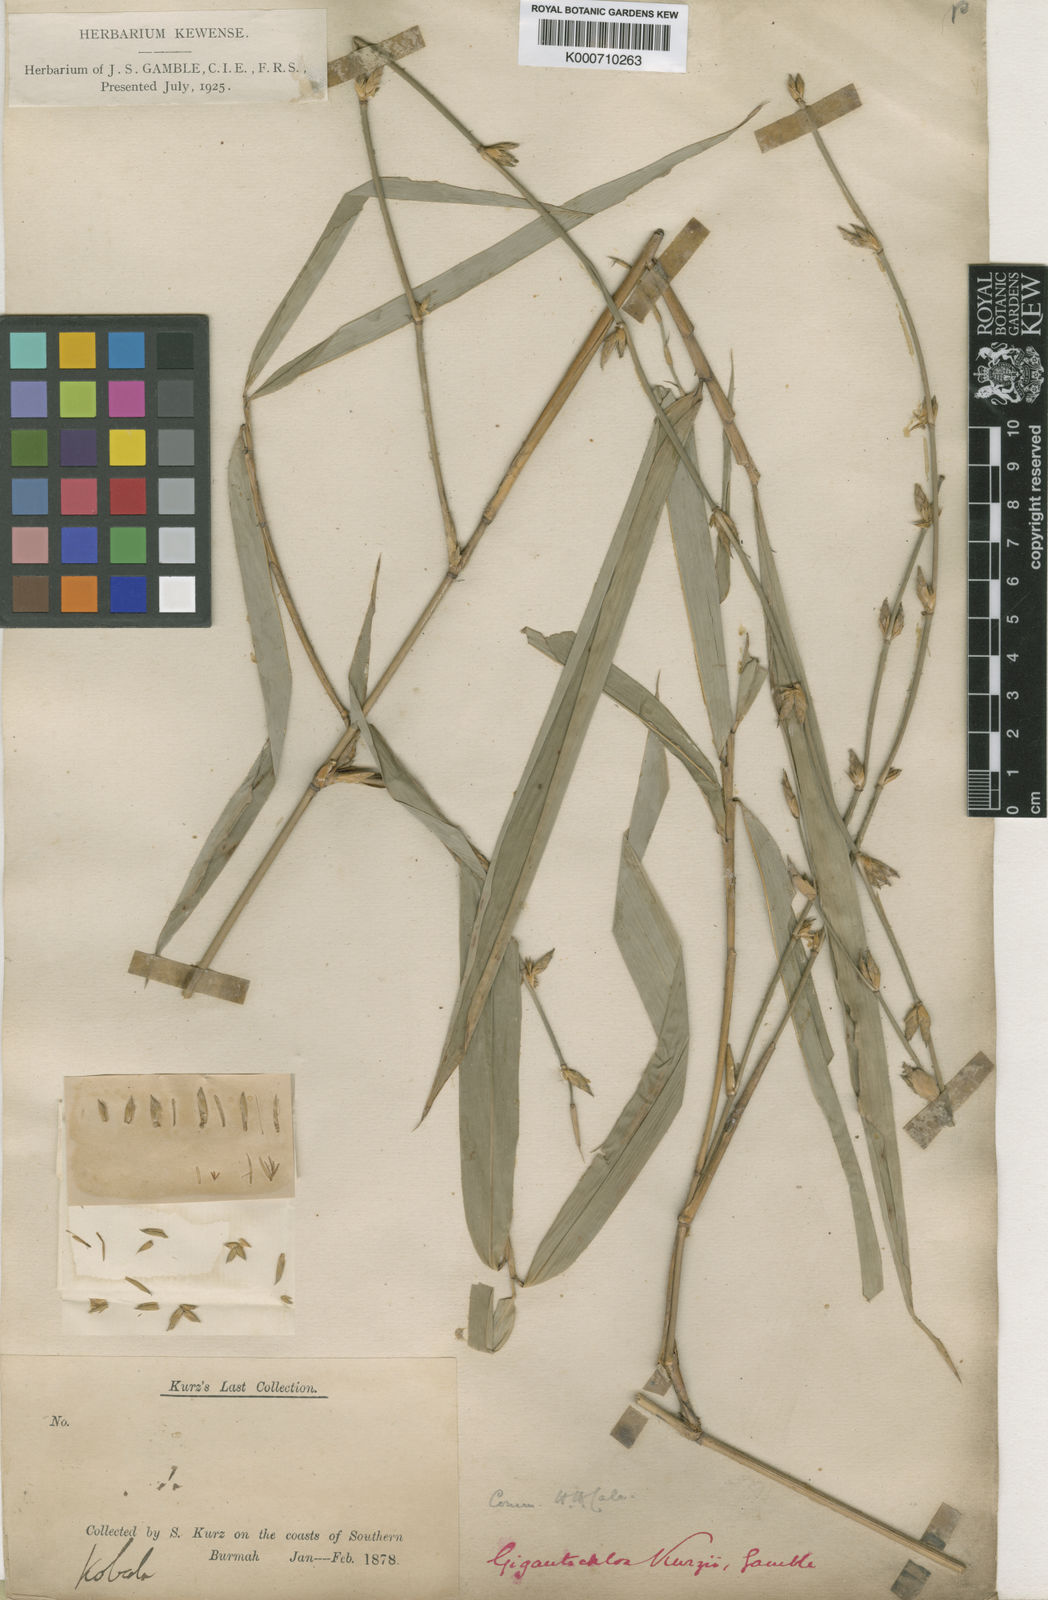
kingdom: Plantae
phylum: Tracheophyta
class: Liliopsida
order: Poales
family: Poaceae
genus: Gigantochloa
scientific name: Gigantochloa apus
